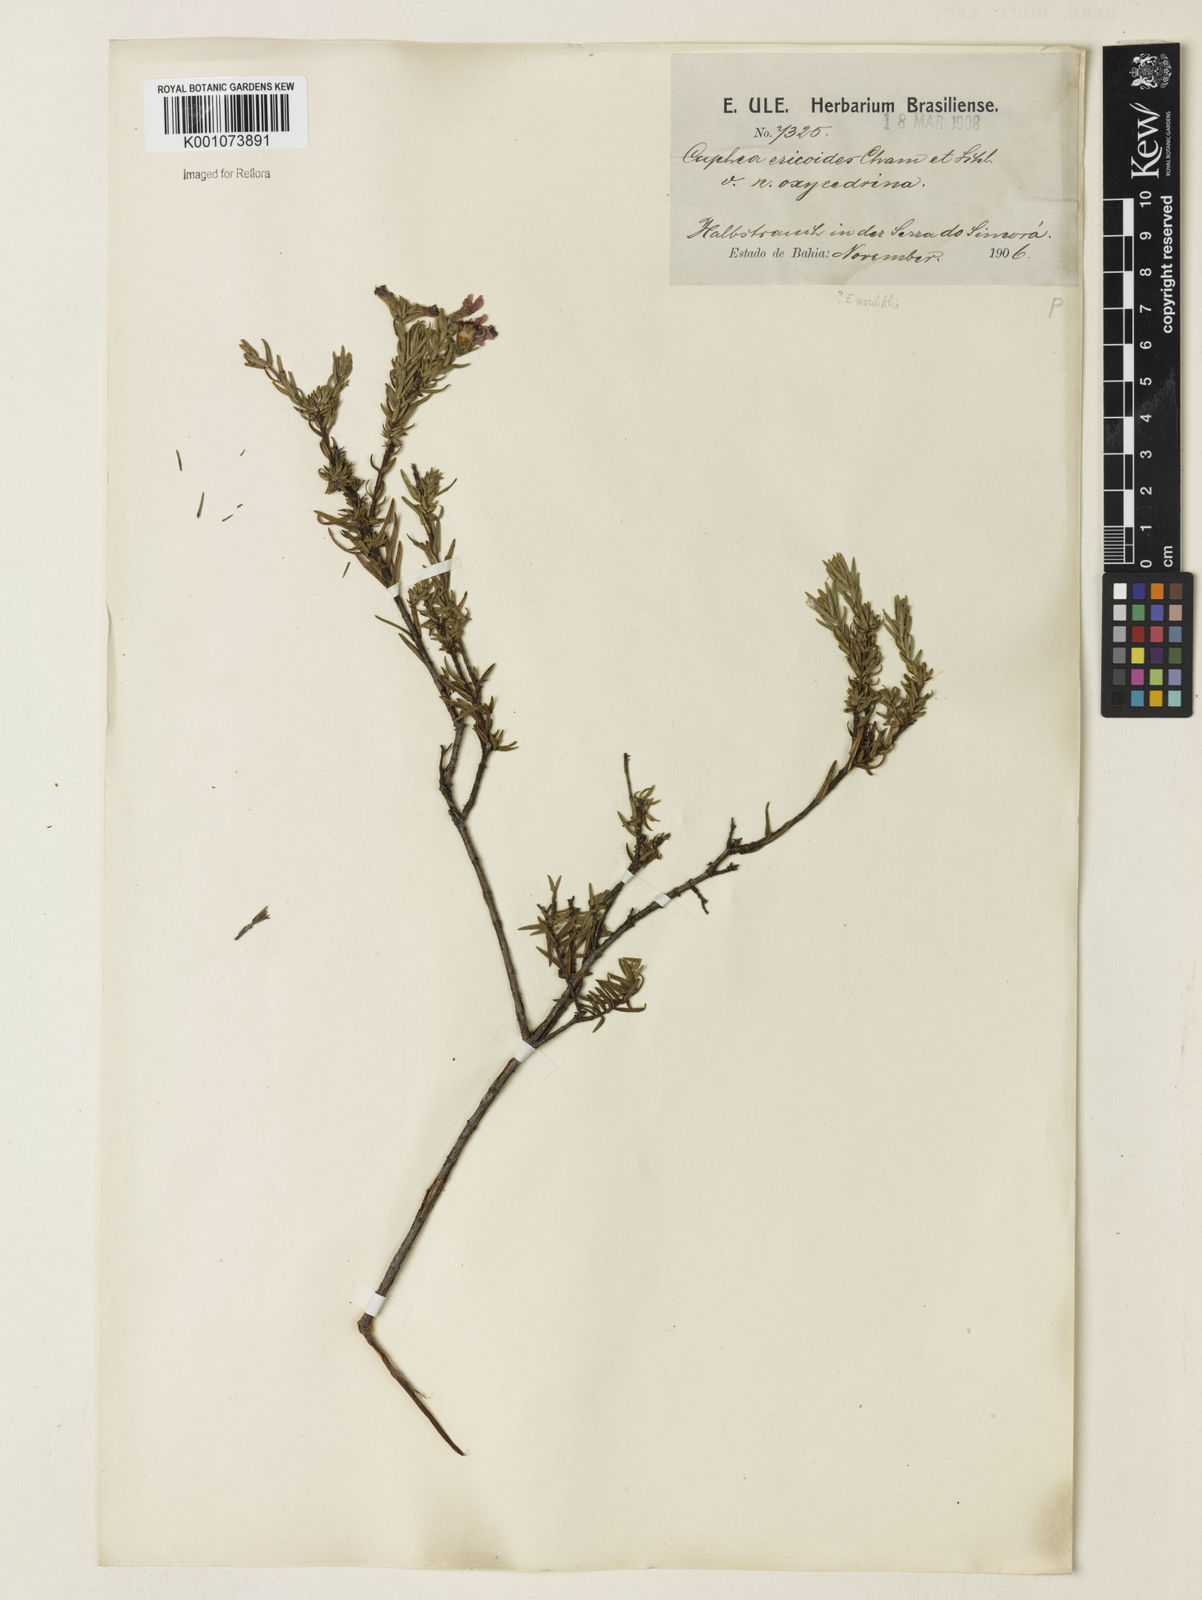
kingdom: Plantae
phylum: Tracheophyta
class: Magnoliopsida
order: Myrtales
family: Lythraceae
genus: Cuphea
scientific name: Cuphea ericoides
